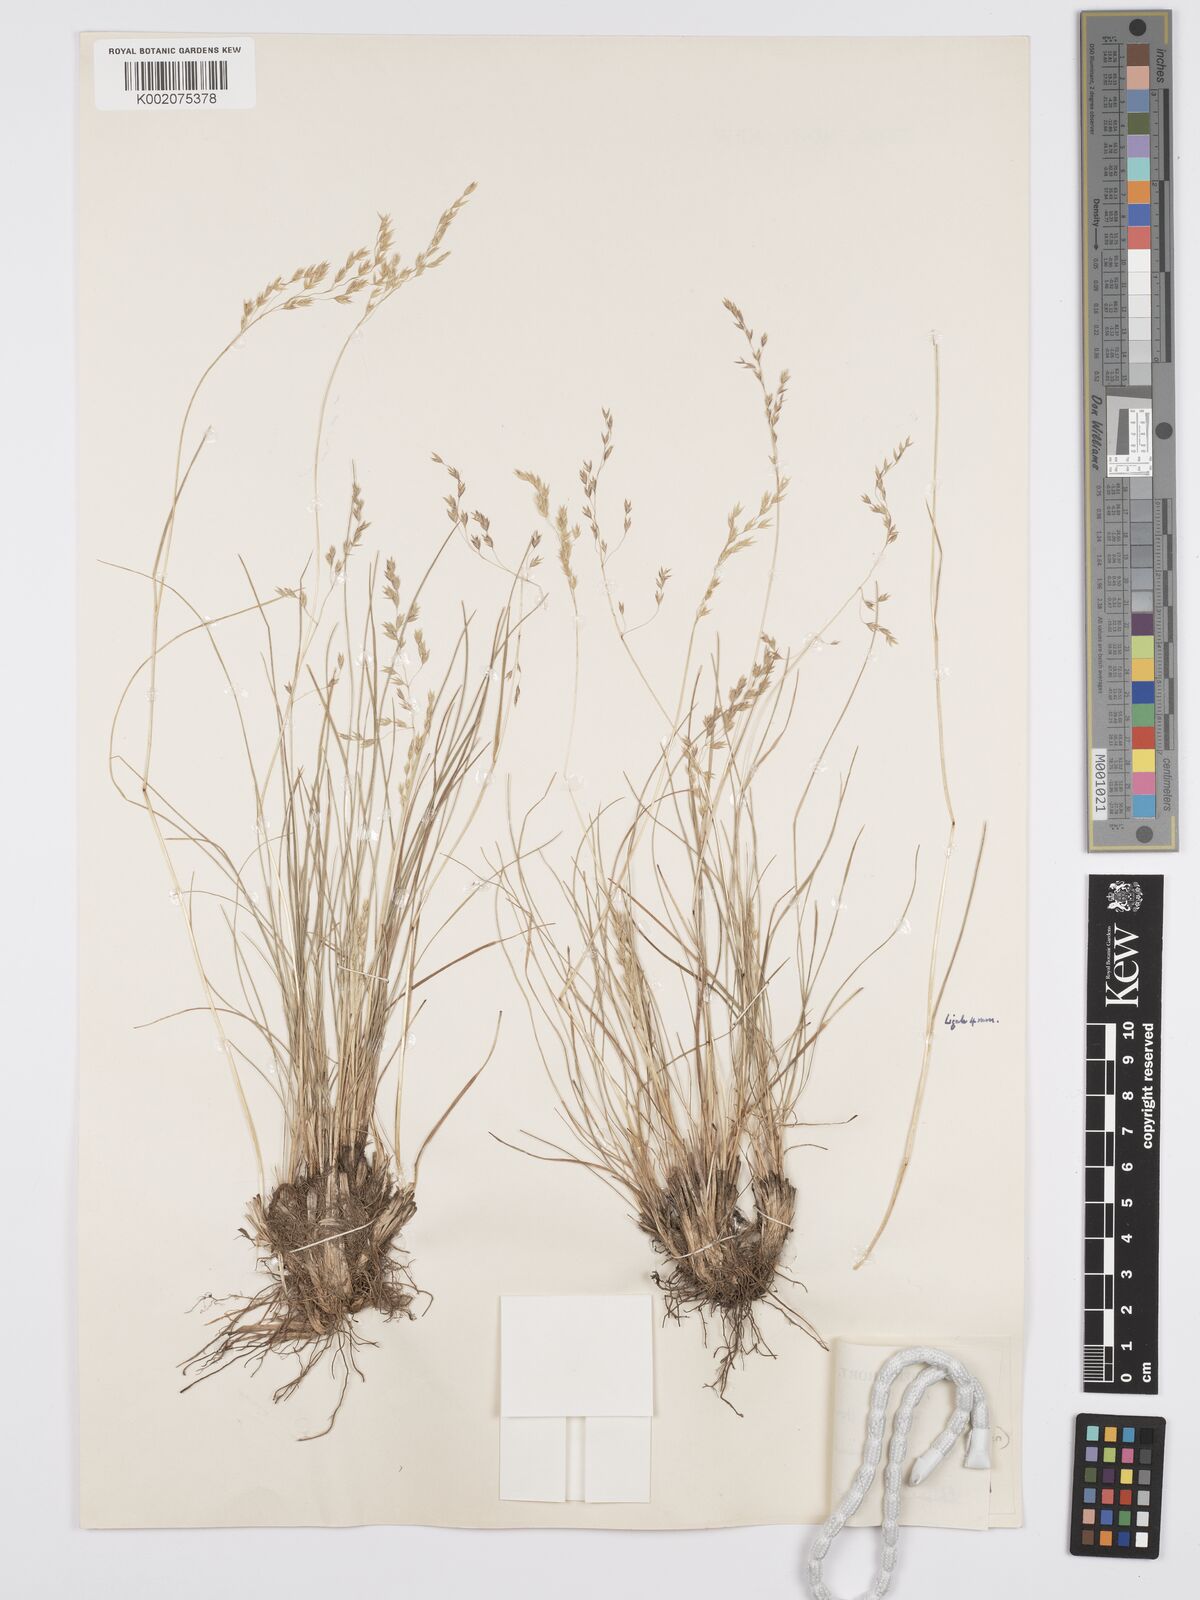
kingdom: Plantae
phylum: Tracheophyta
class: Liliopsida
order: Poales
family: Poaceae
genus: Poa
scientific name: Poa simensis
